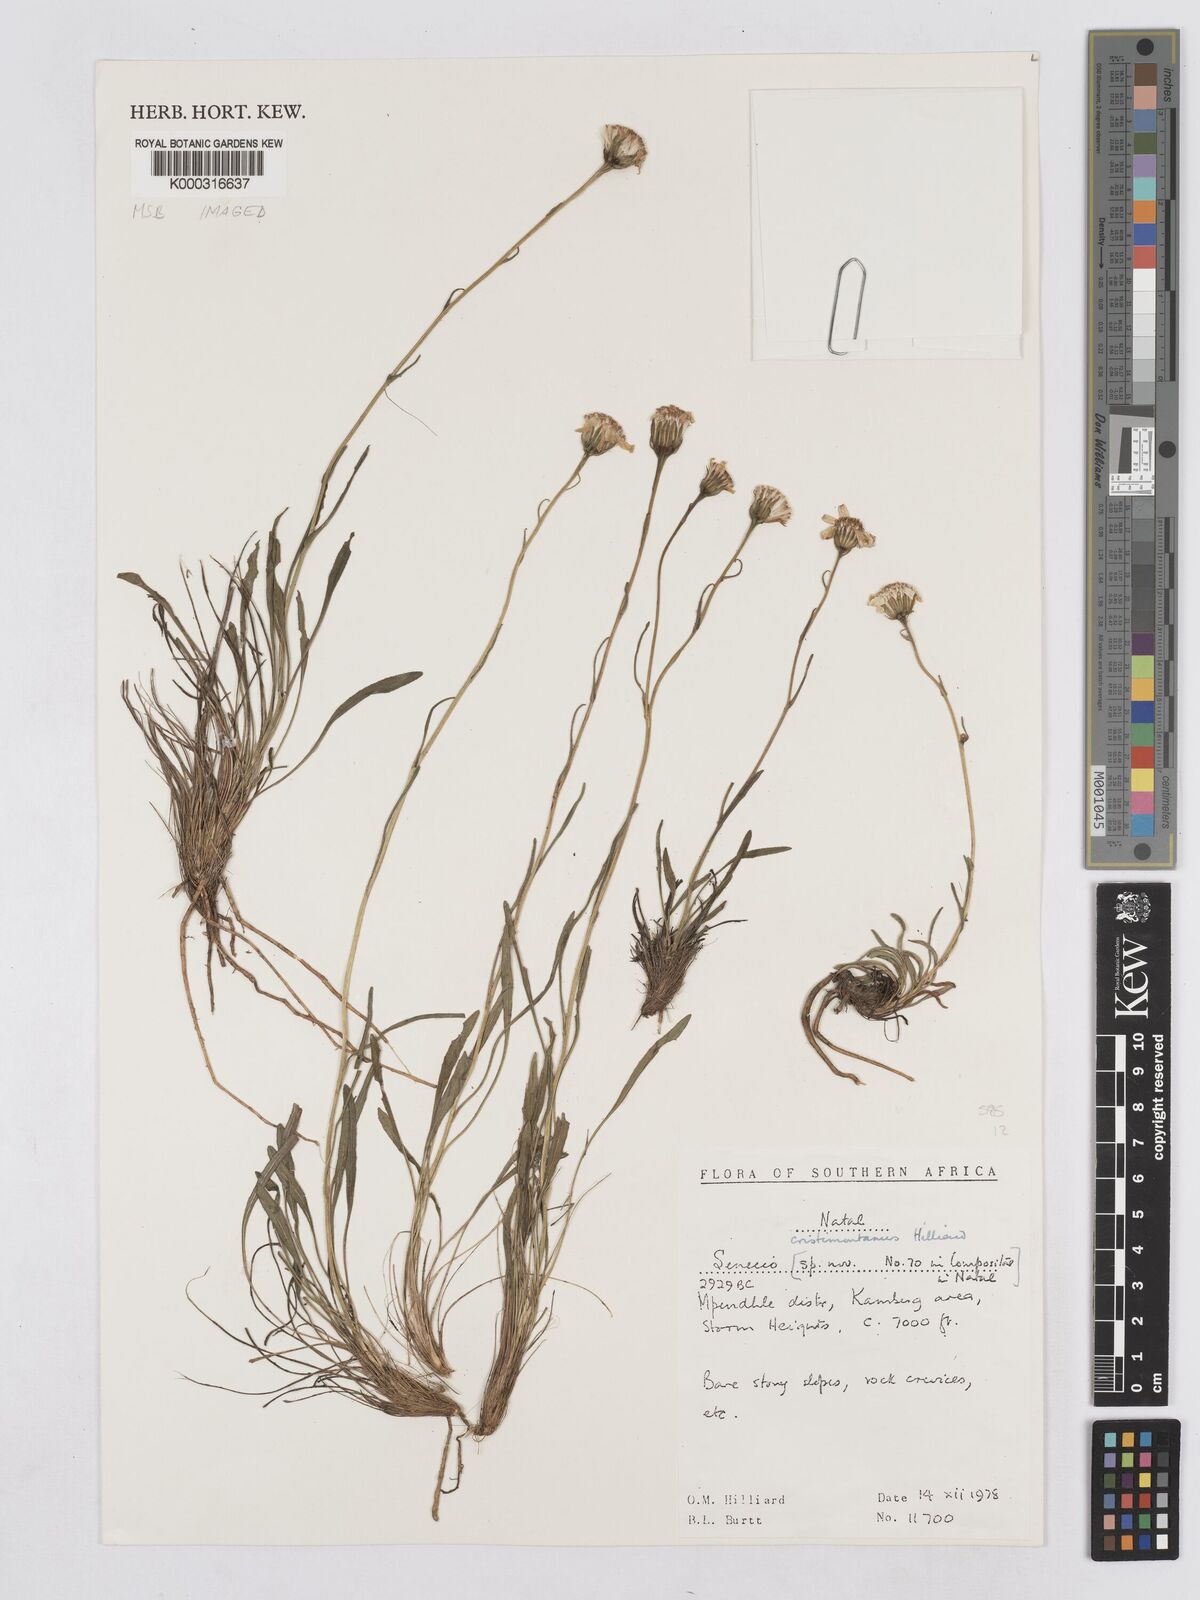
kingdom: Plantae
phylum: Tracheophyta
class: Magnoliopsida
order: Asterales
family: Asteraceae
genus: Senecio
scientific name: Senecio cristimontanus
